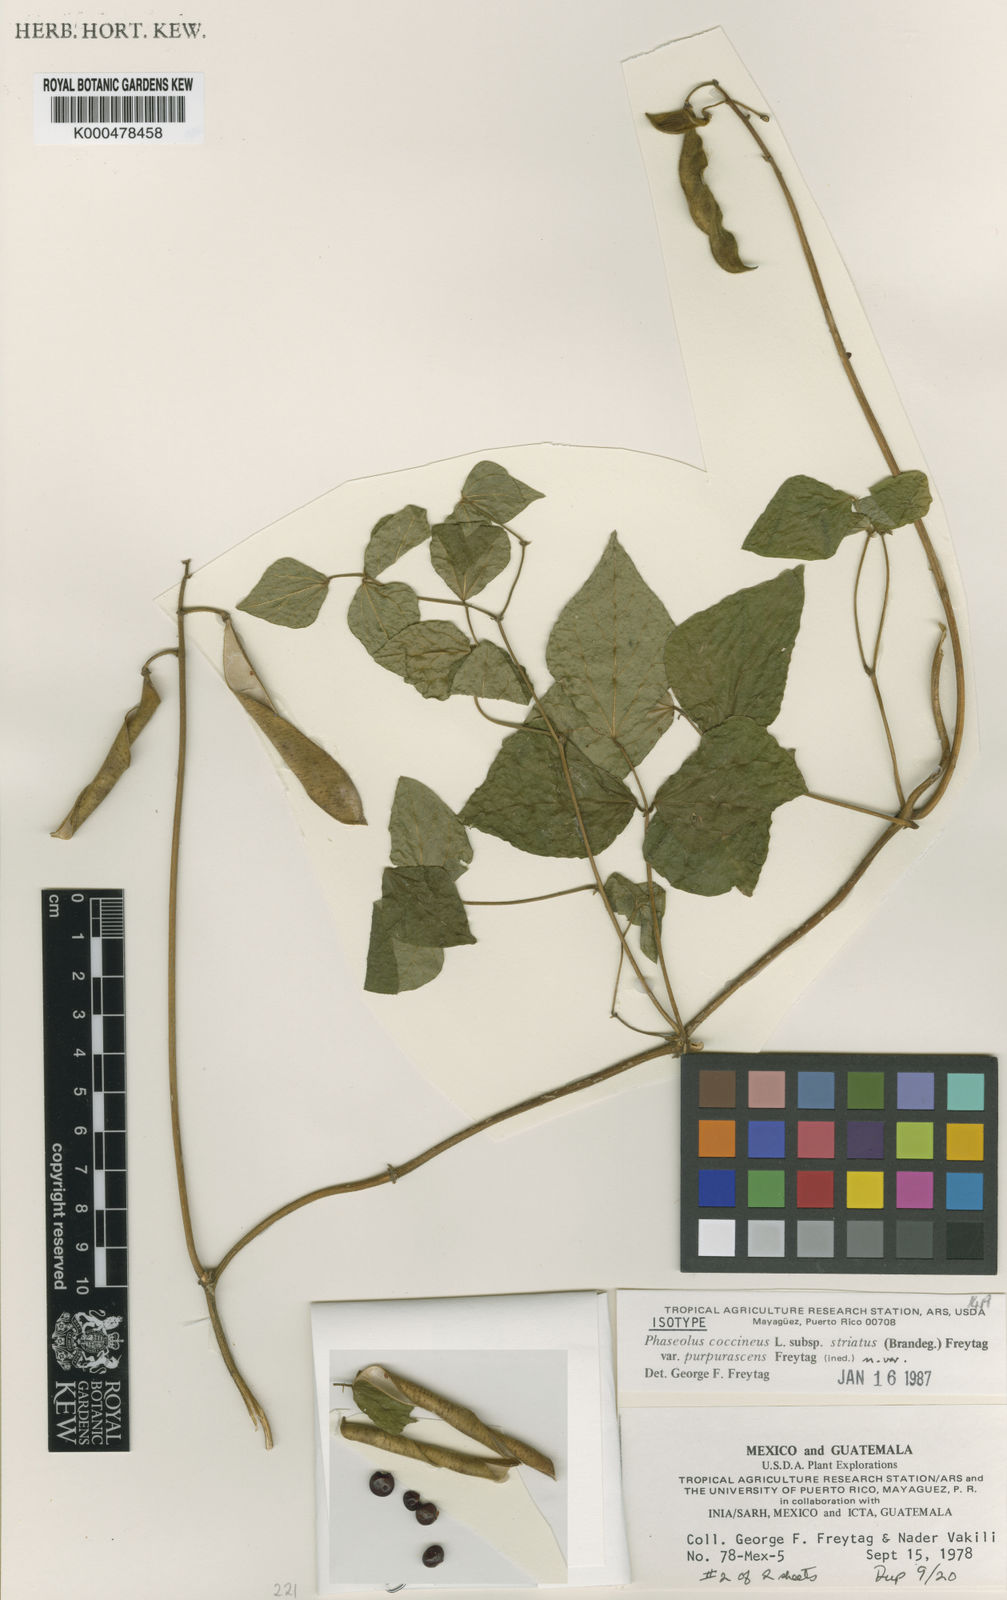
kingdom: Plantae
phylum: Tracheophyta
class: Magnoliopsida
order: Fabales
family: Fabaceae
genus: Phaseolus
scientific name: Phaseolus coccineus
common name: Runner bean
